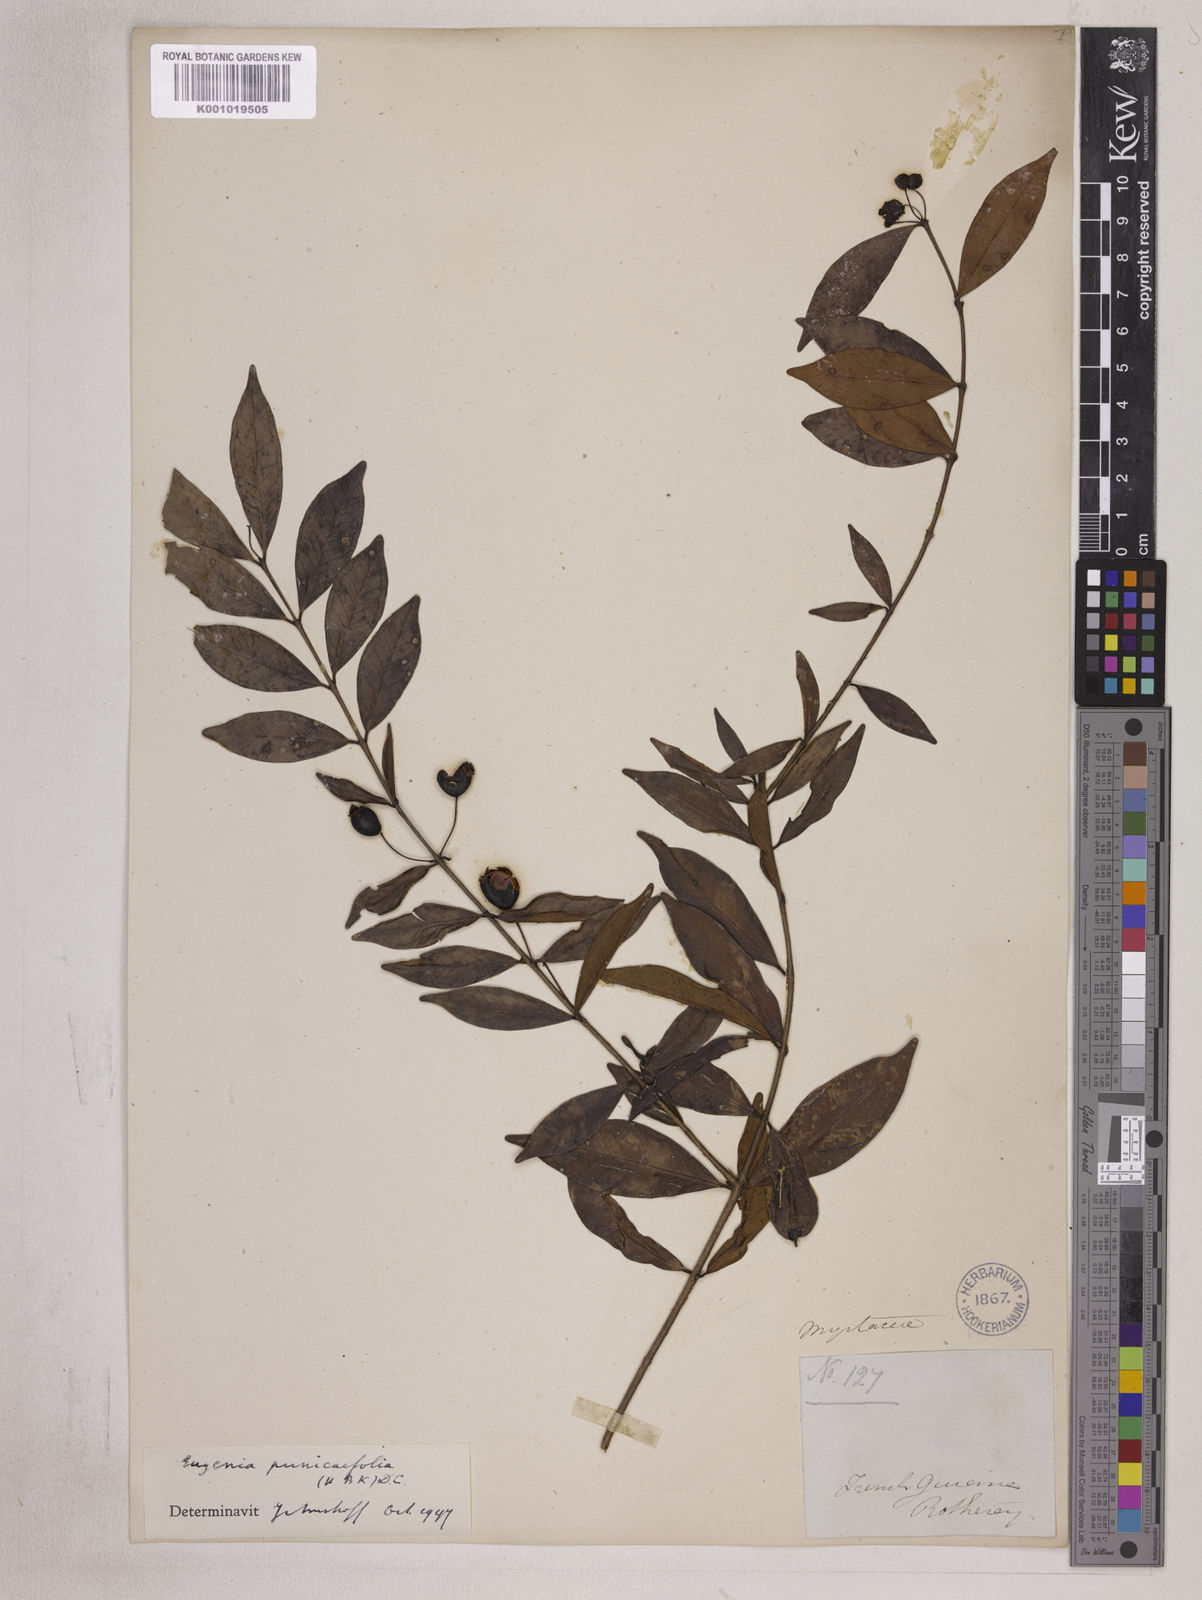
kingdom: Plantae
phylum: Tracheophyta
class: Magnoliopsida
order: Myrtales
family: Myrtaceae
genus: Eugenia
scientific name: Eugenia punicifolia
